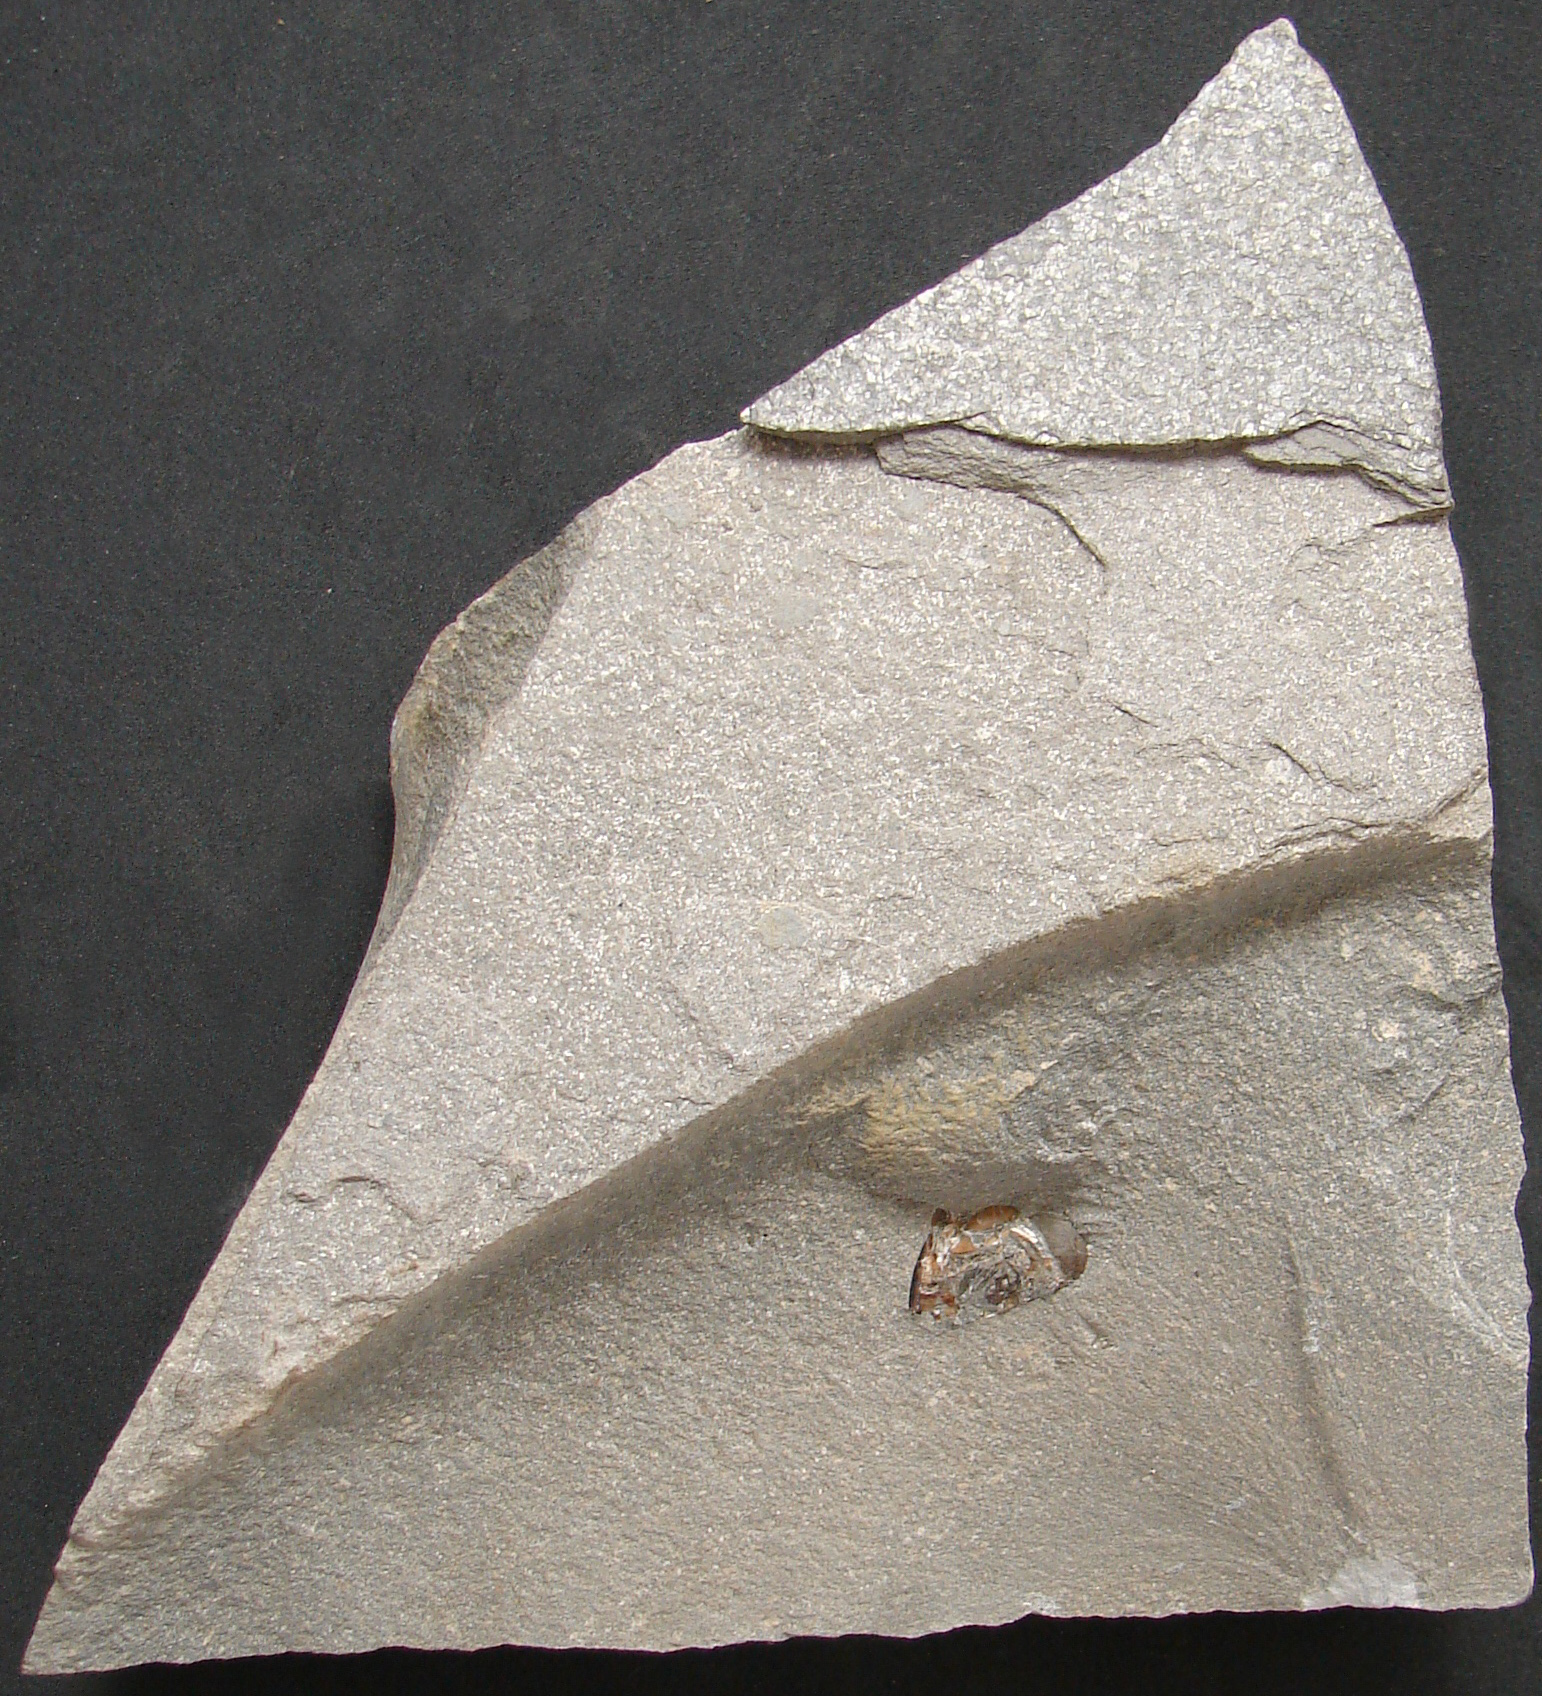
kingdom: Animalia
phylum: Chordata
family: Leptolepididae
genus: Leptolepis
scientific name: Leptolepis normandica
